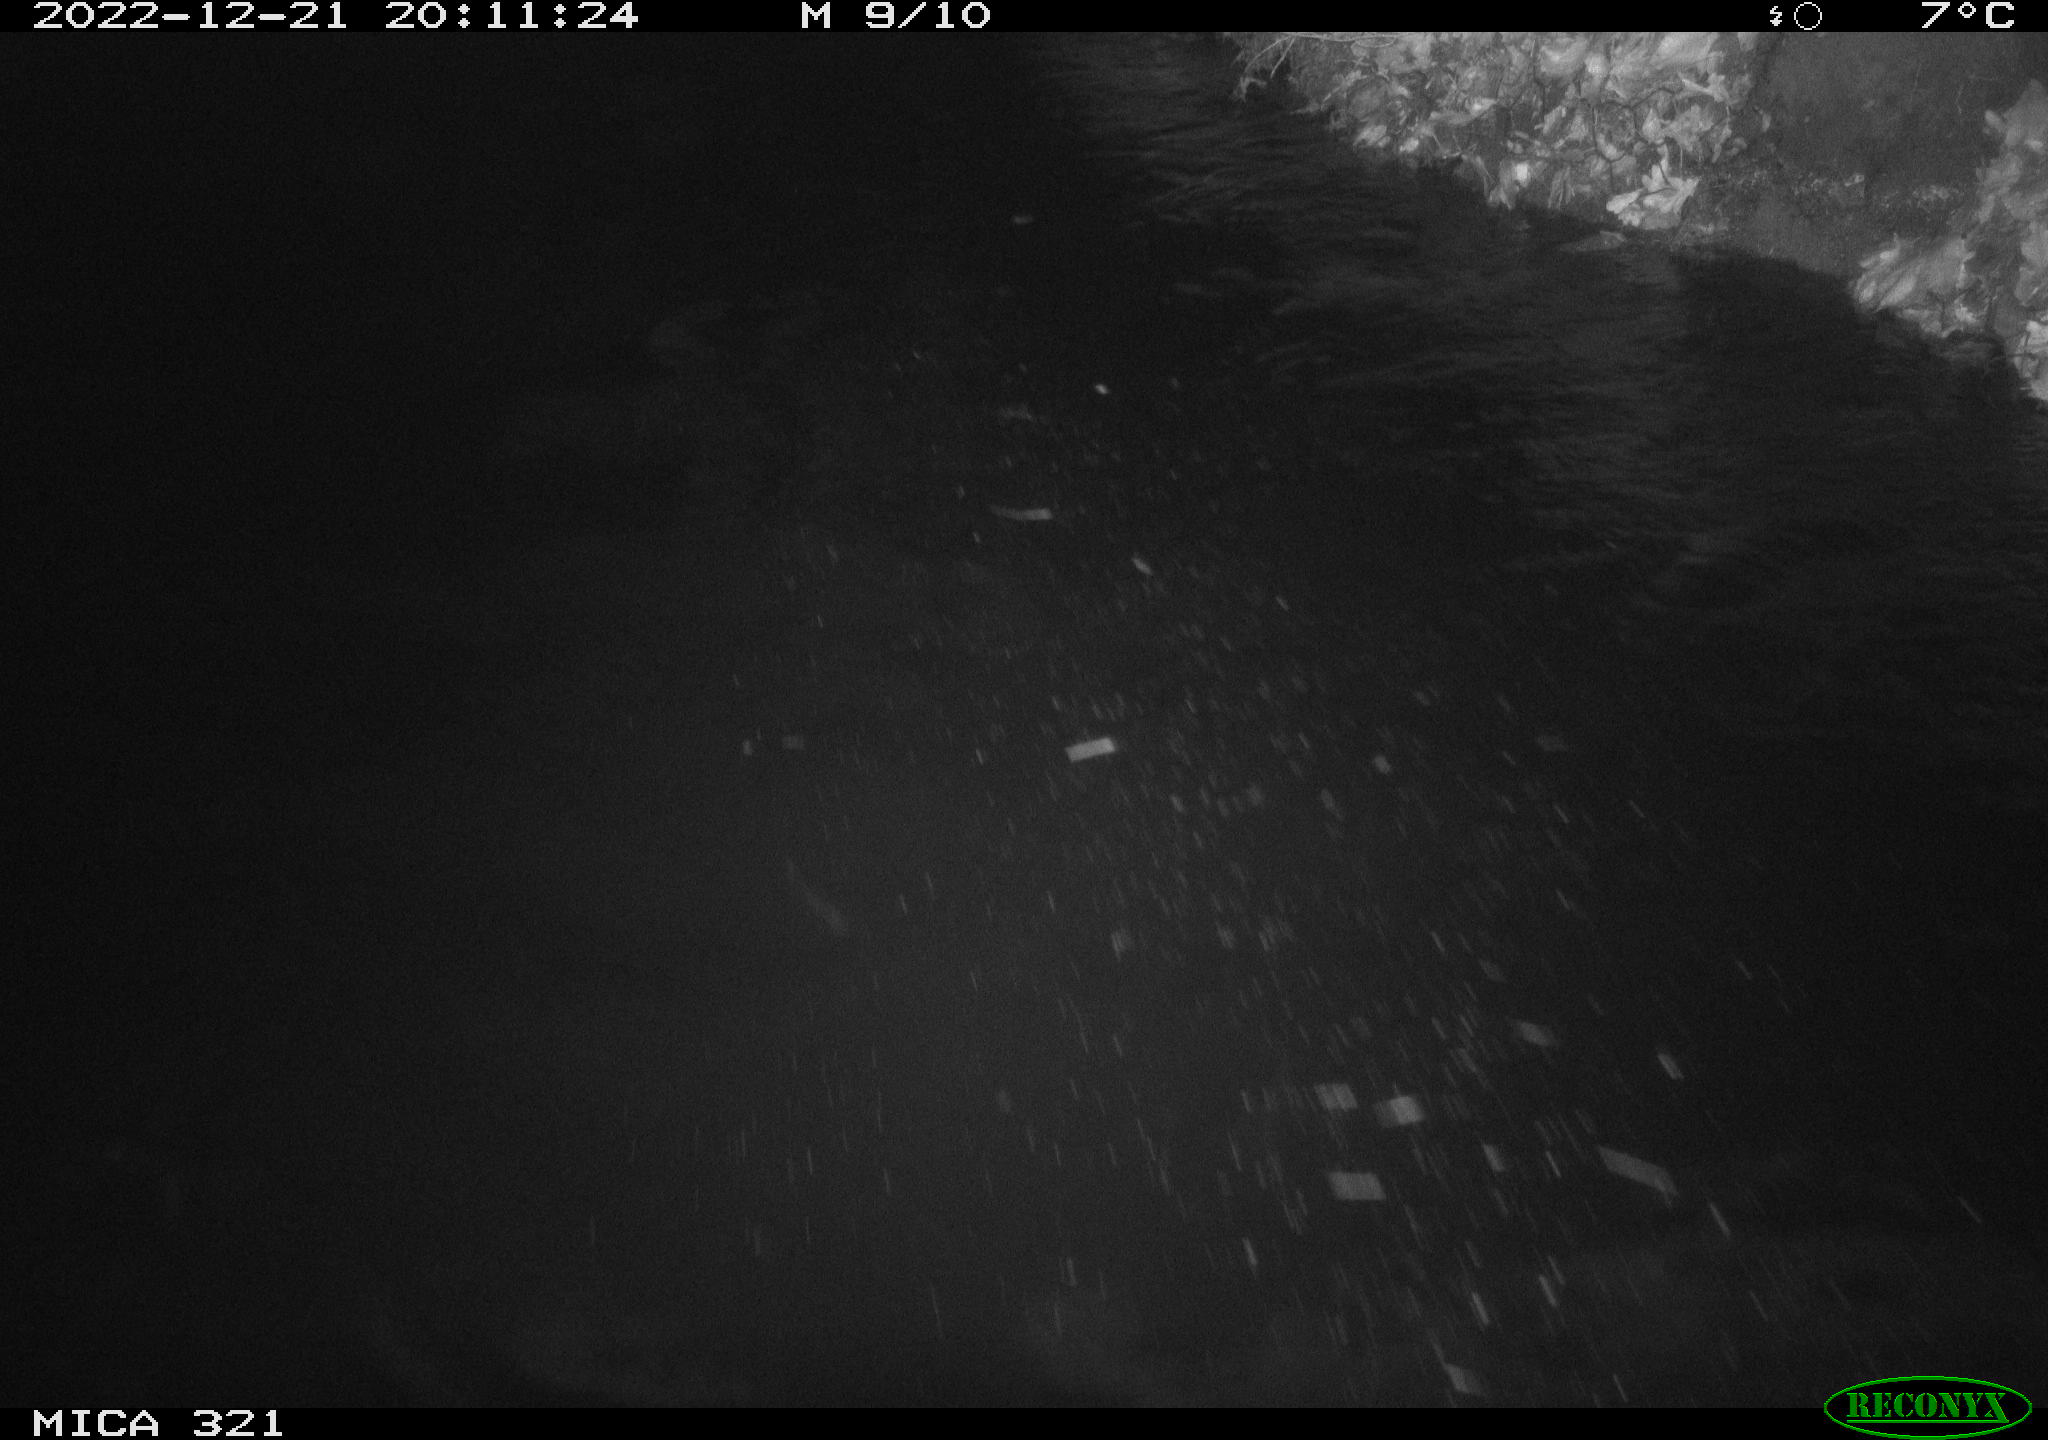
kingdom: Animalia
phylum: Chordata
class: Aves
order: Anseriformes
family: Anatidae
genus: Anas
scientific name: Anas
